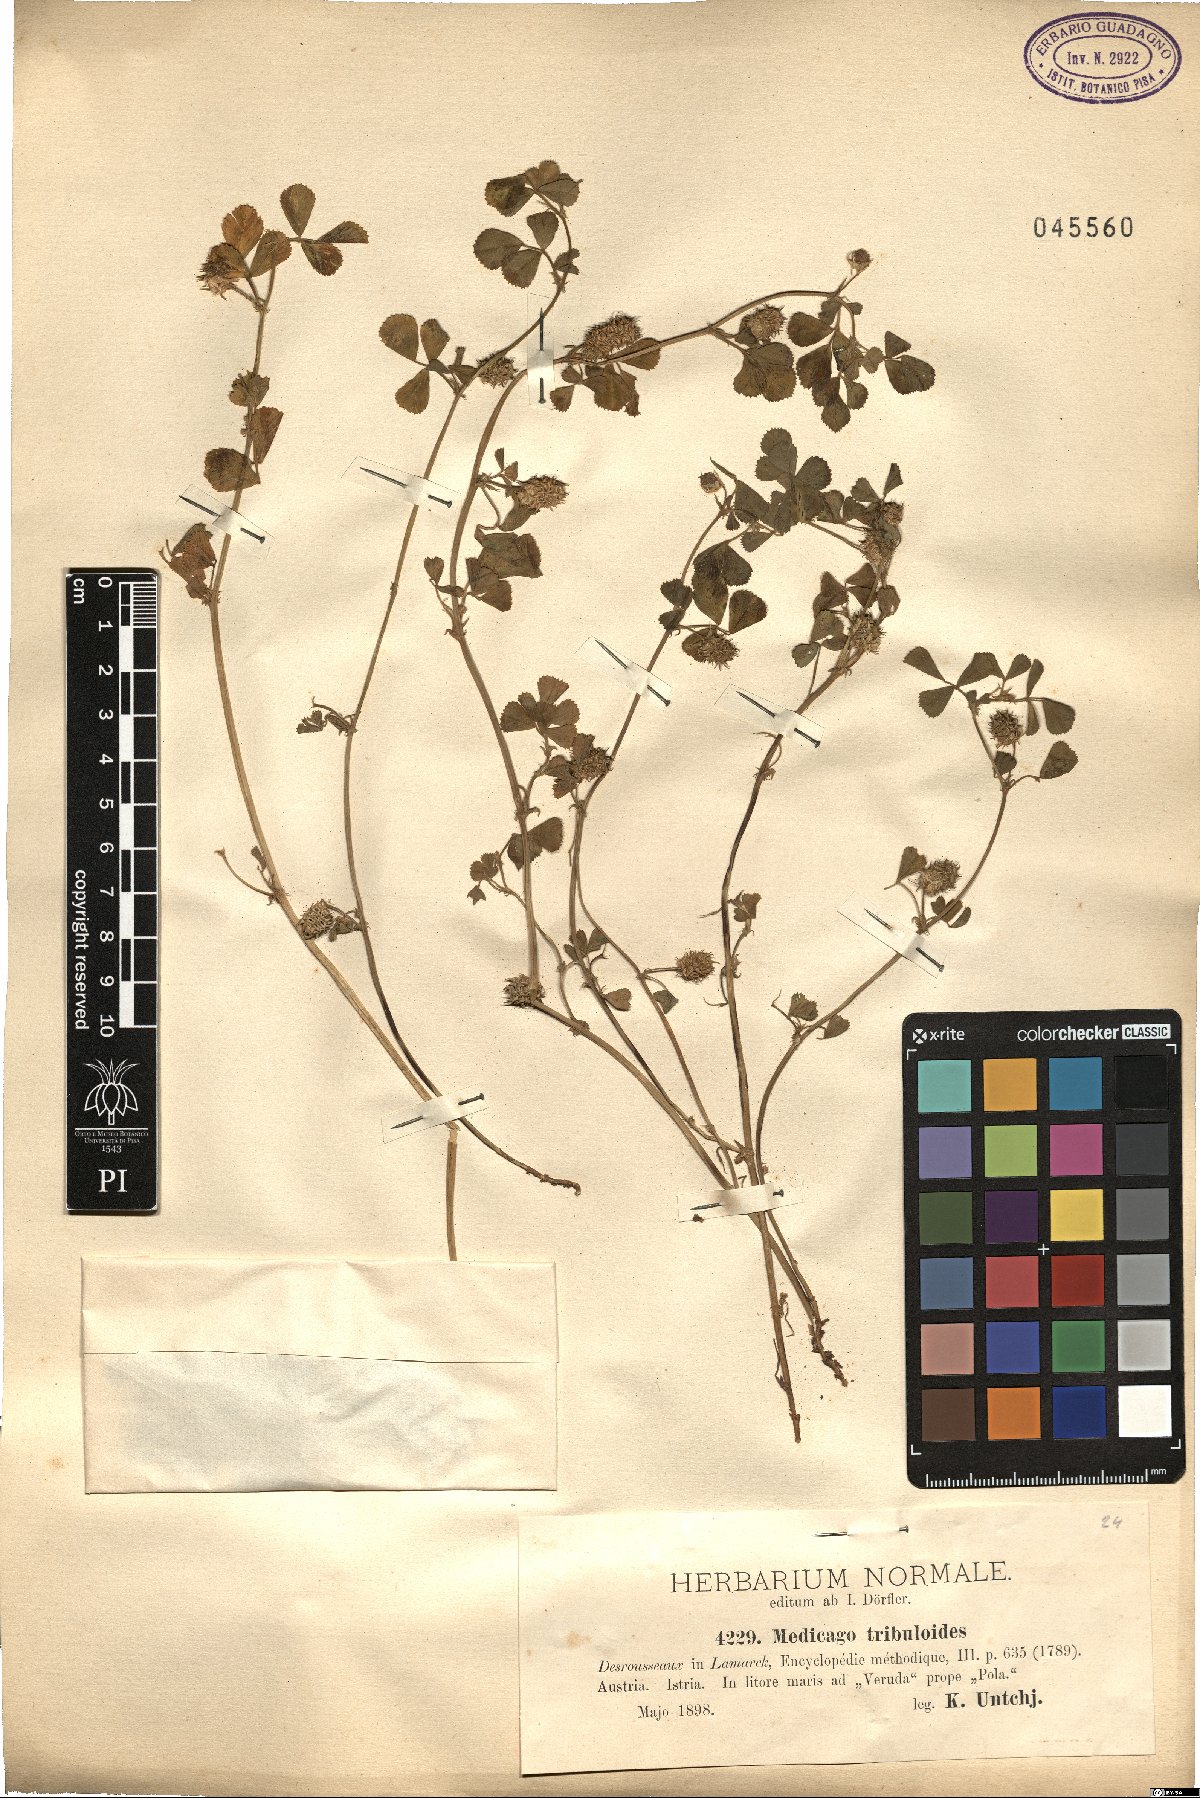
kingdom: Plantae
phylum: Tracheophyta
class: Magnoliopsida
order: Fabales
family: Fabaceae
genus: Medicago
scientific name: Medicago truncatula
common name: Strong-spined medick
